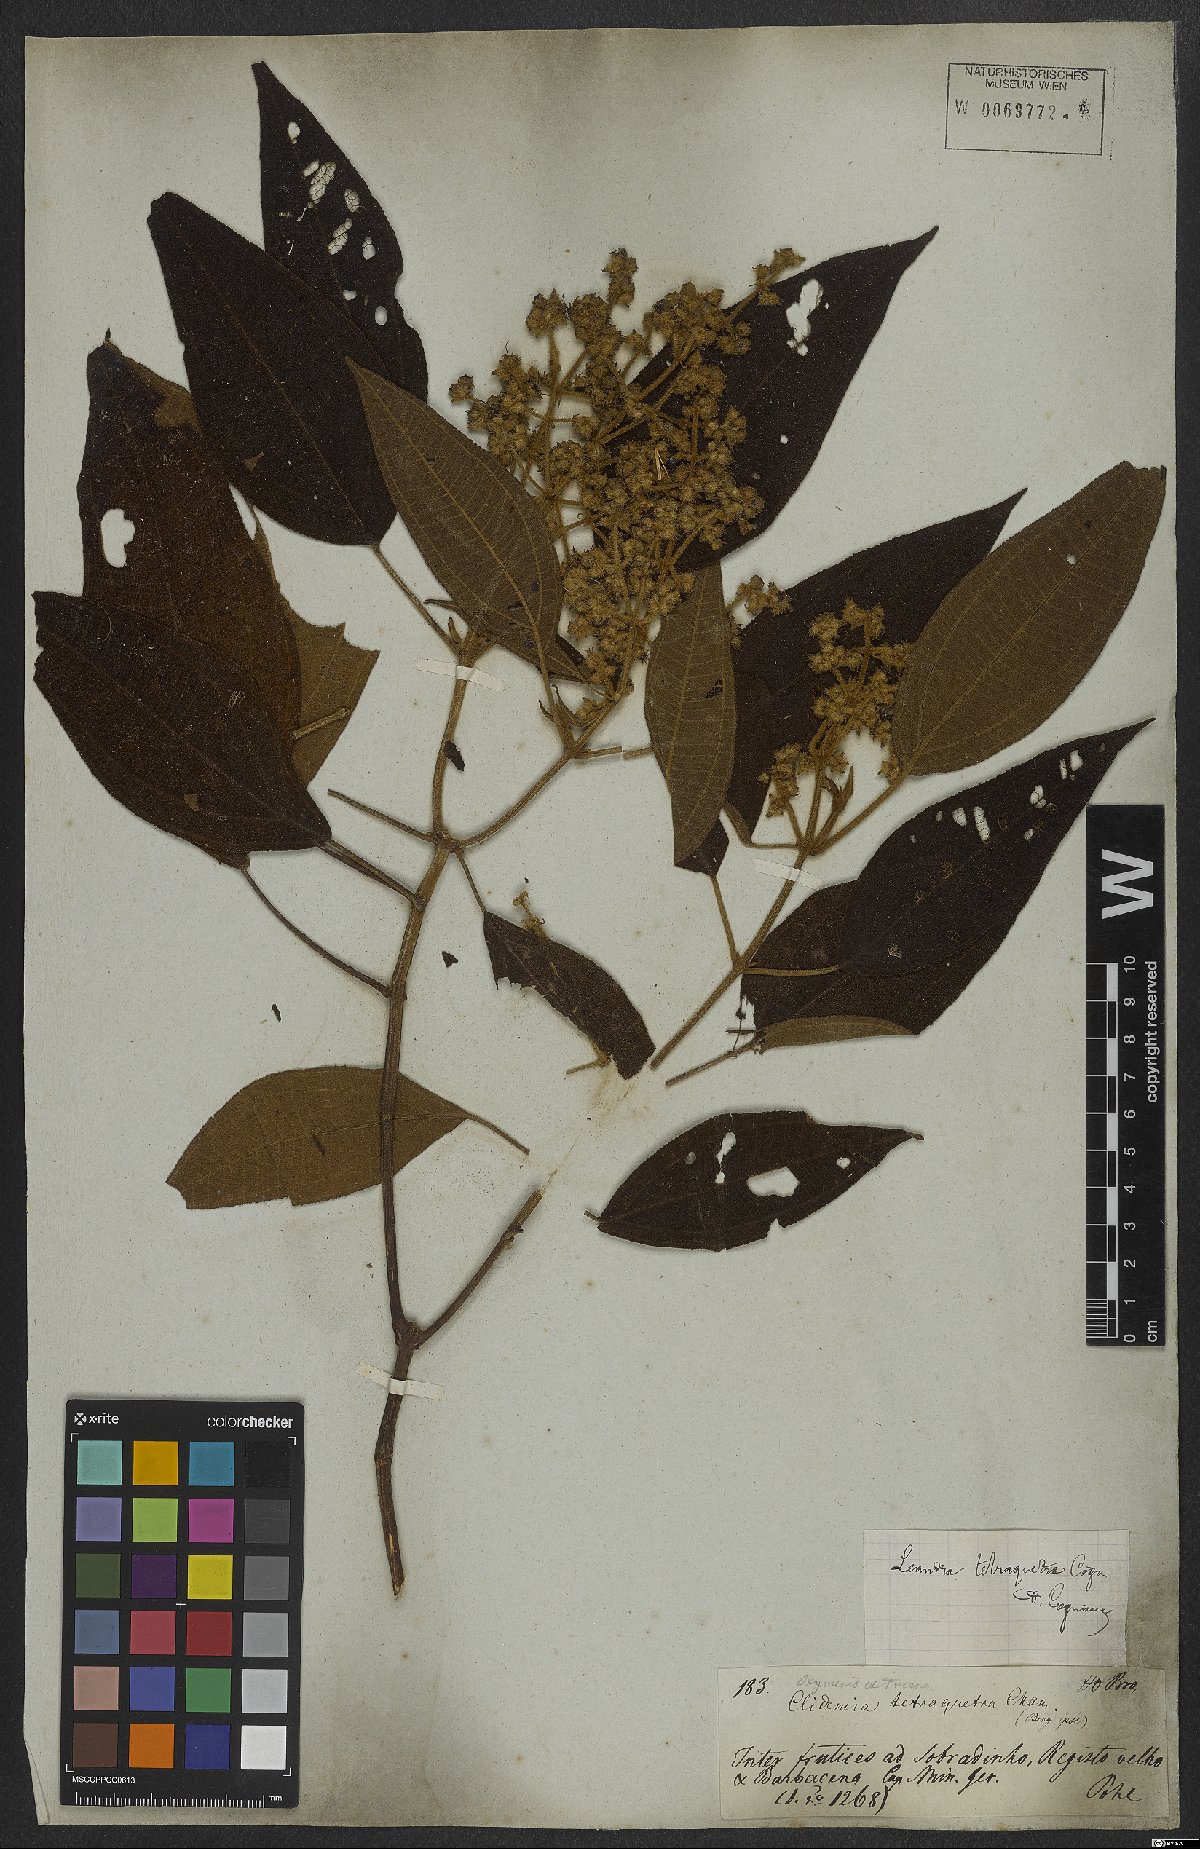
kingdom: Plantae
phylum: Tracheophyta
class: Magnoliopsida
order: Myrtales
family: Melastomataceae
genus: Miconia
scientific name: Miconia tetraquetra
